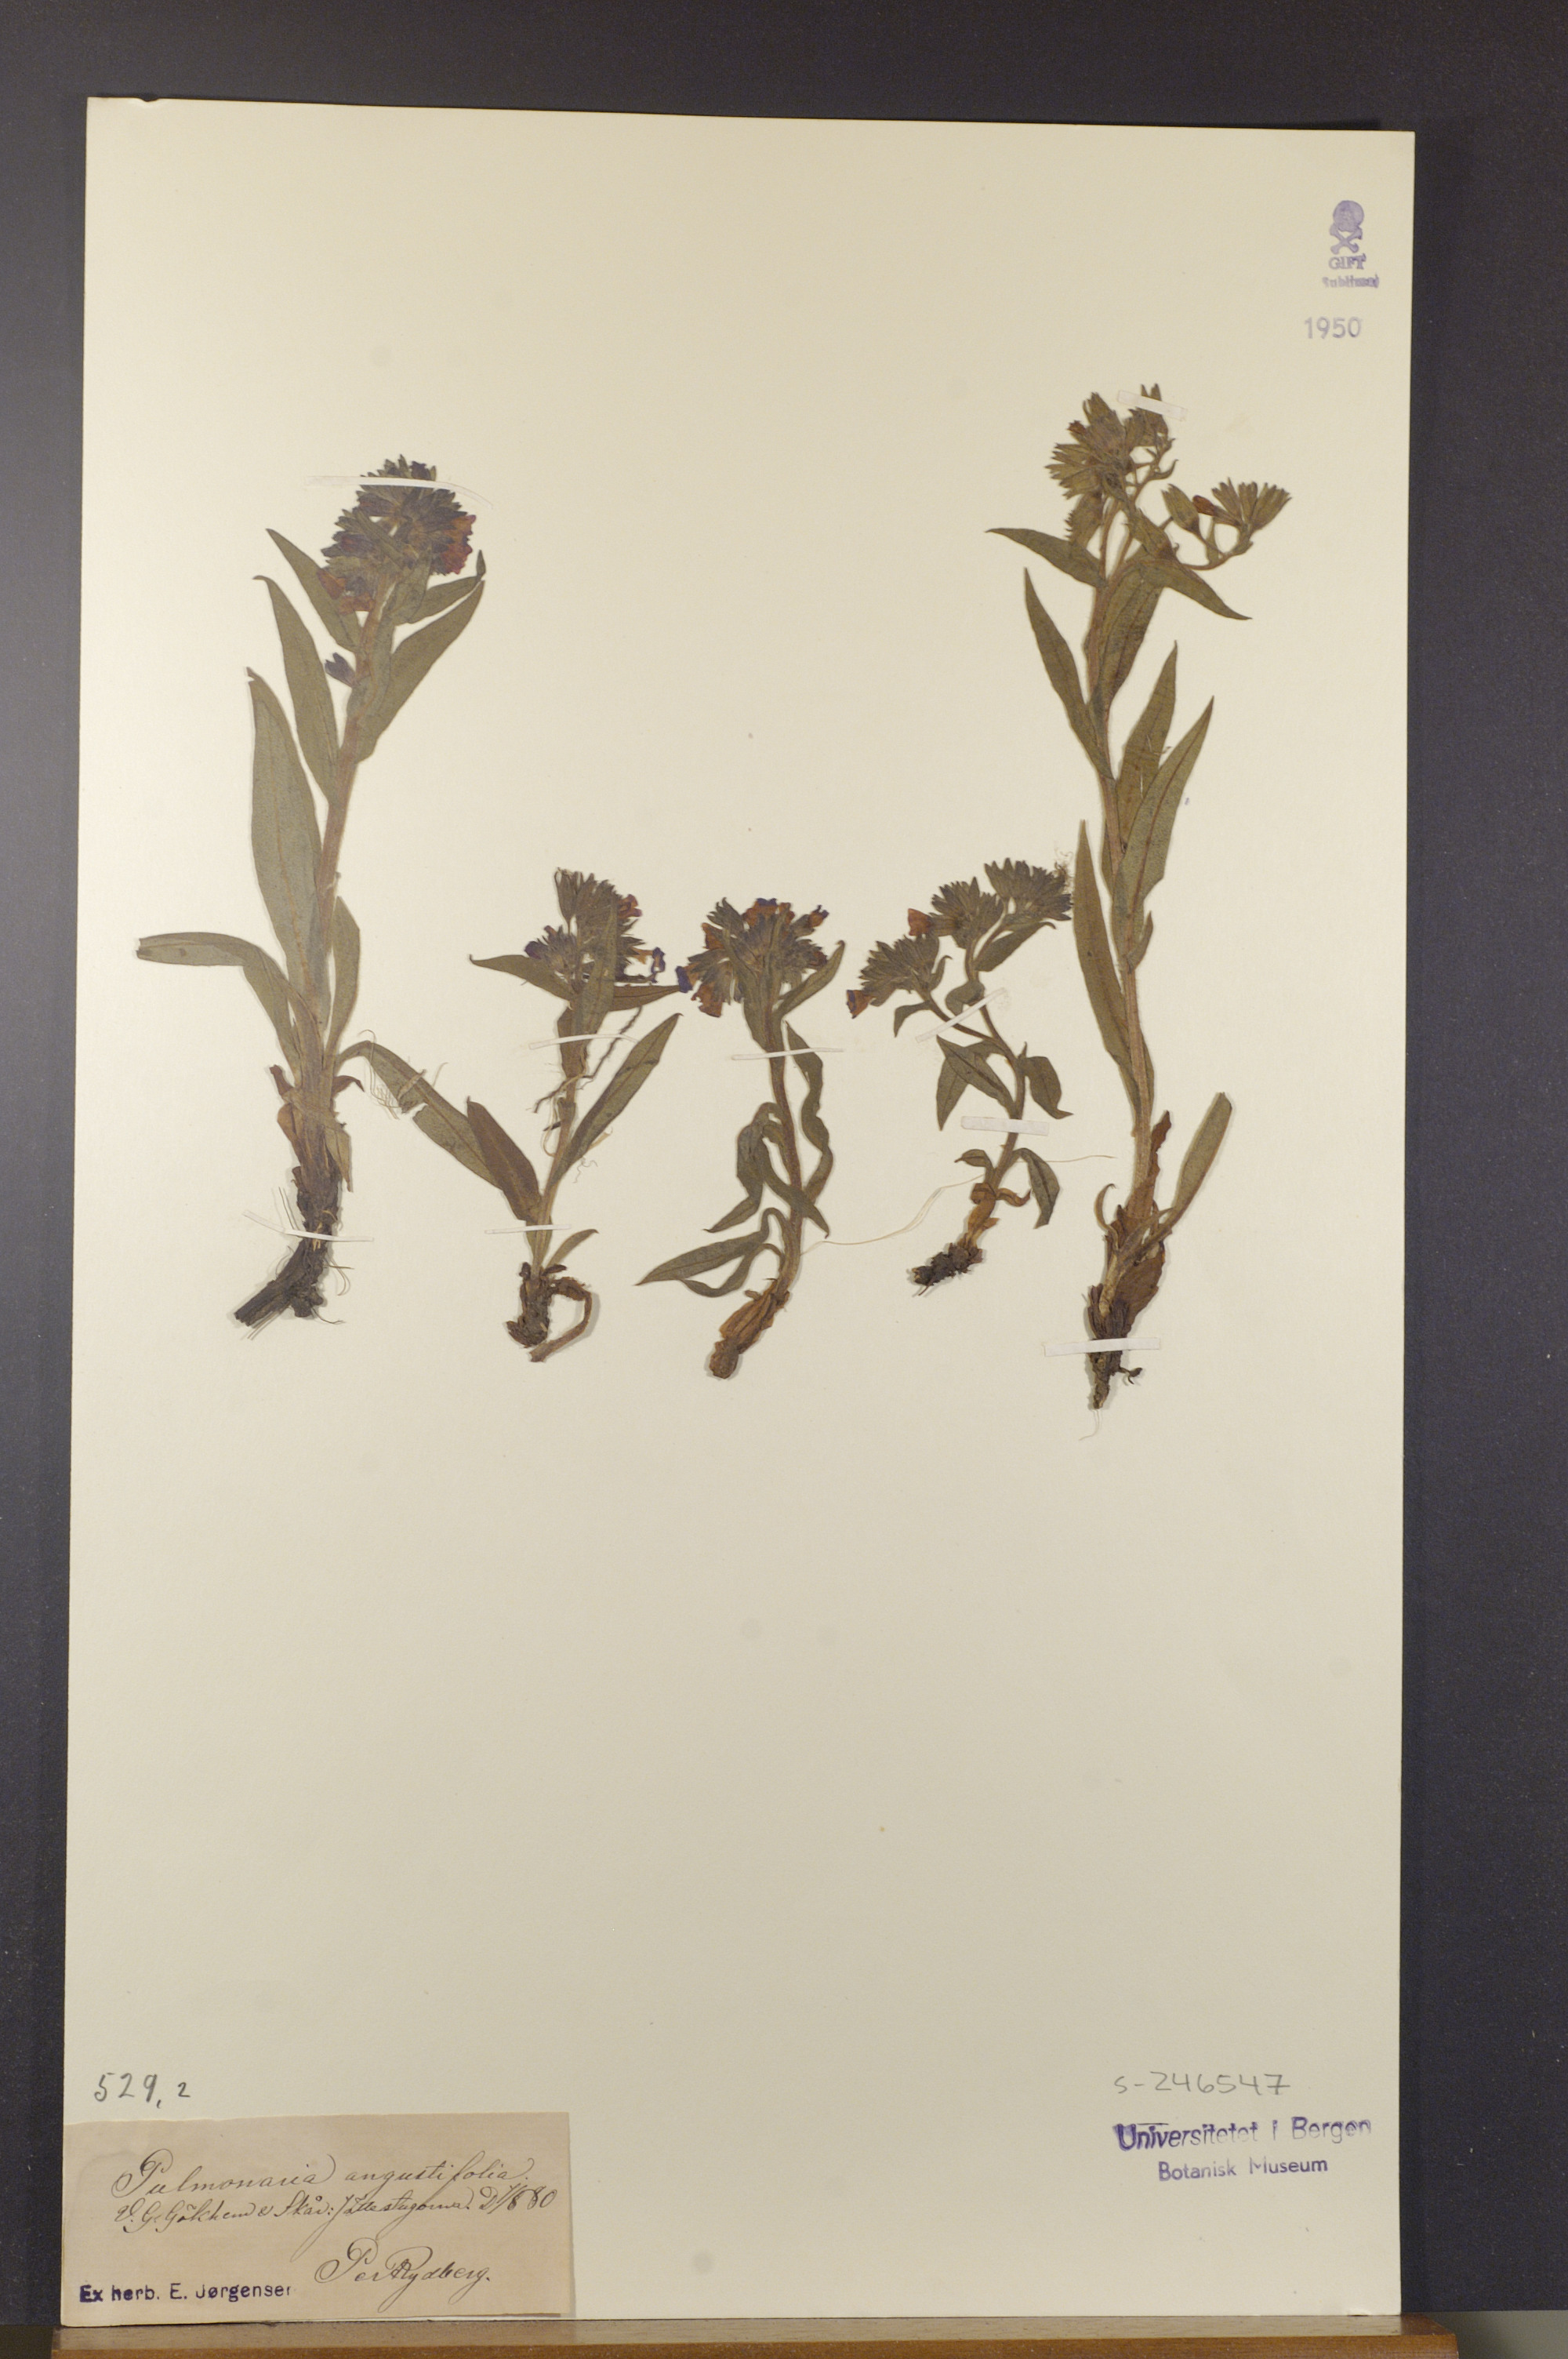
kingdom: Plantae
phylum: Tracheophyta
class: Magnoliopsida
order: Boraginales
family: Boraginaceae
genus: Pulmonaria
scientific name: Pulmonaria angustifolia
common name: Blue cowslip
